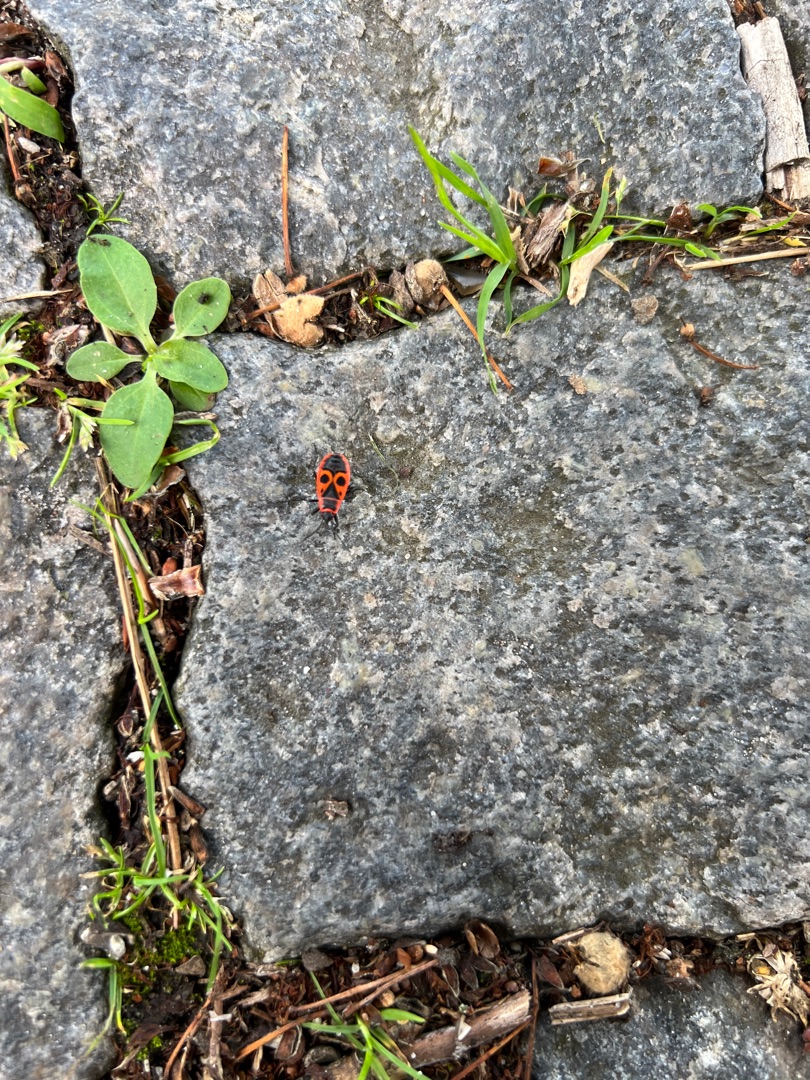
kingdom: Animalia
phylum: Arthropoda
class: Insecta
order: Hemiptera
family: Pyrrhocoridae
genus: Pyrrhocoris
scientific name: Pyrrhocoris apterus
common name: Ildtæge
